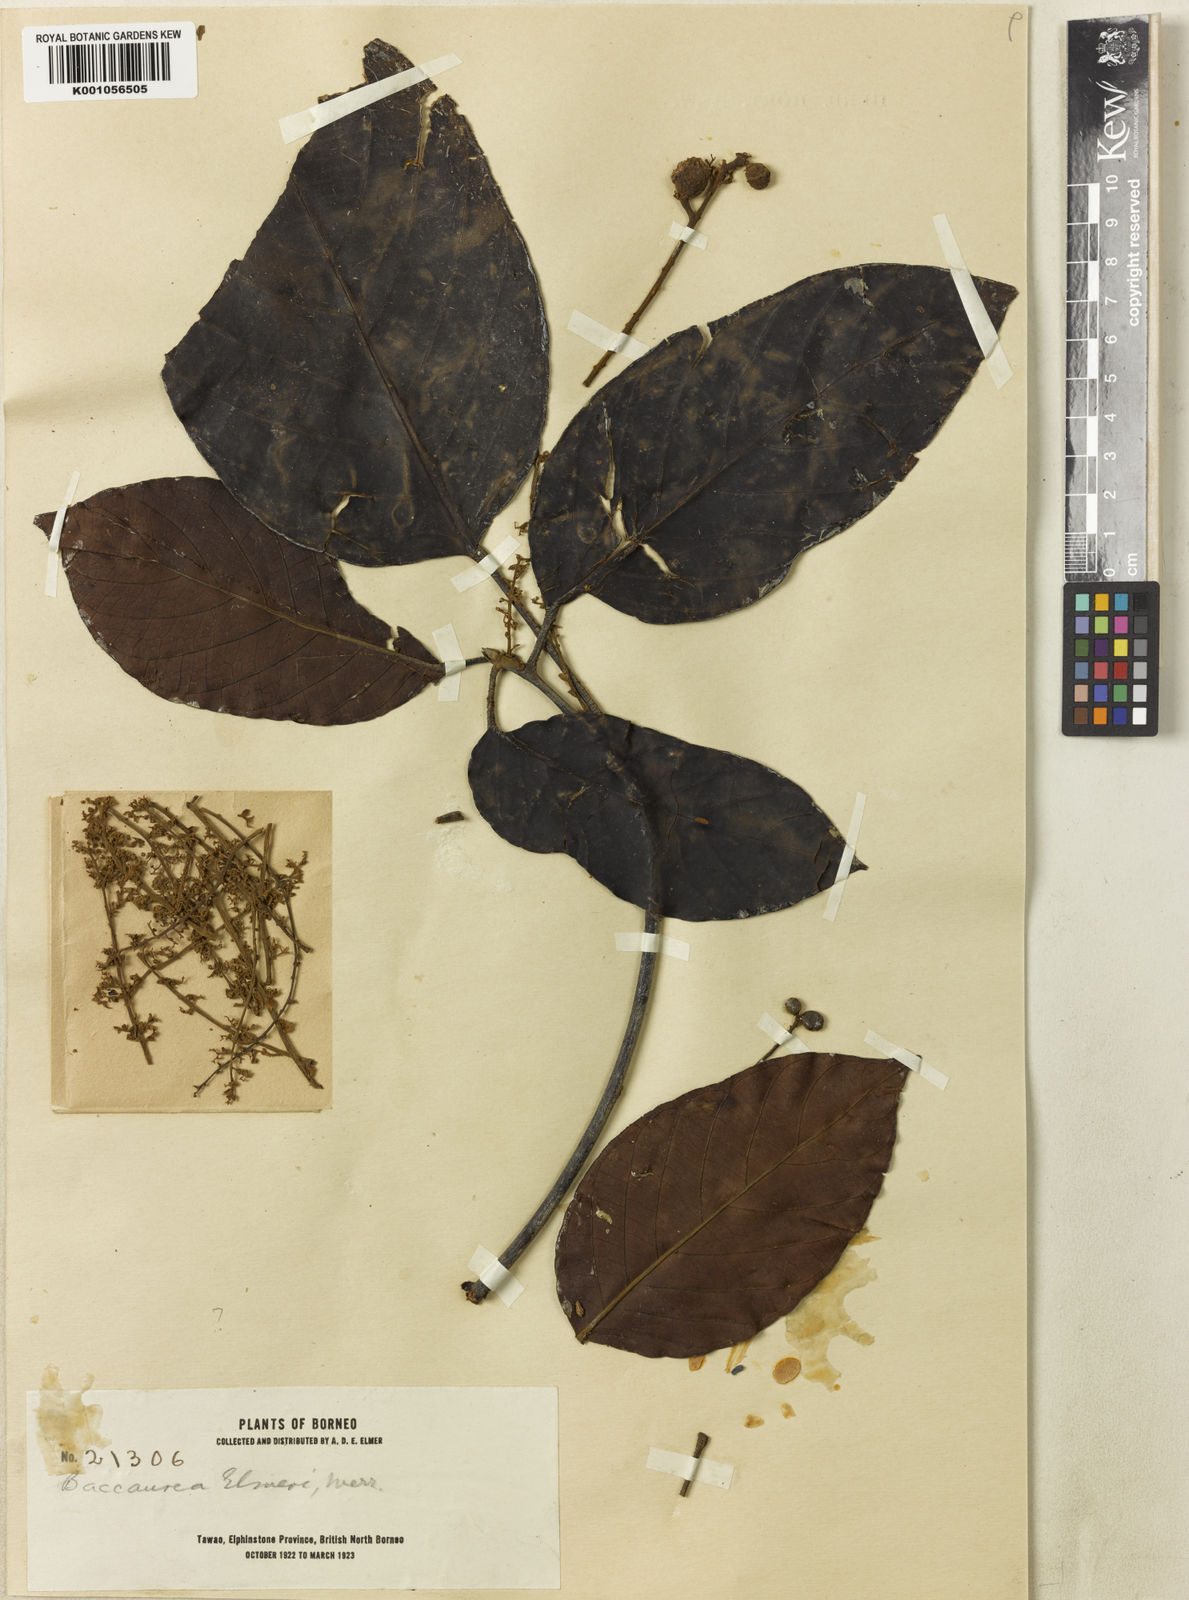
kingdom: Plantae
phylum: Tracheophyta
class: Magnoliopsida
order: Malpighiales
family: Phyllanthaceae
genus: Baccaurea
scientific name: Baccaurea pubera
